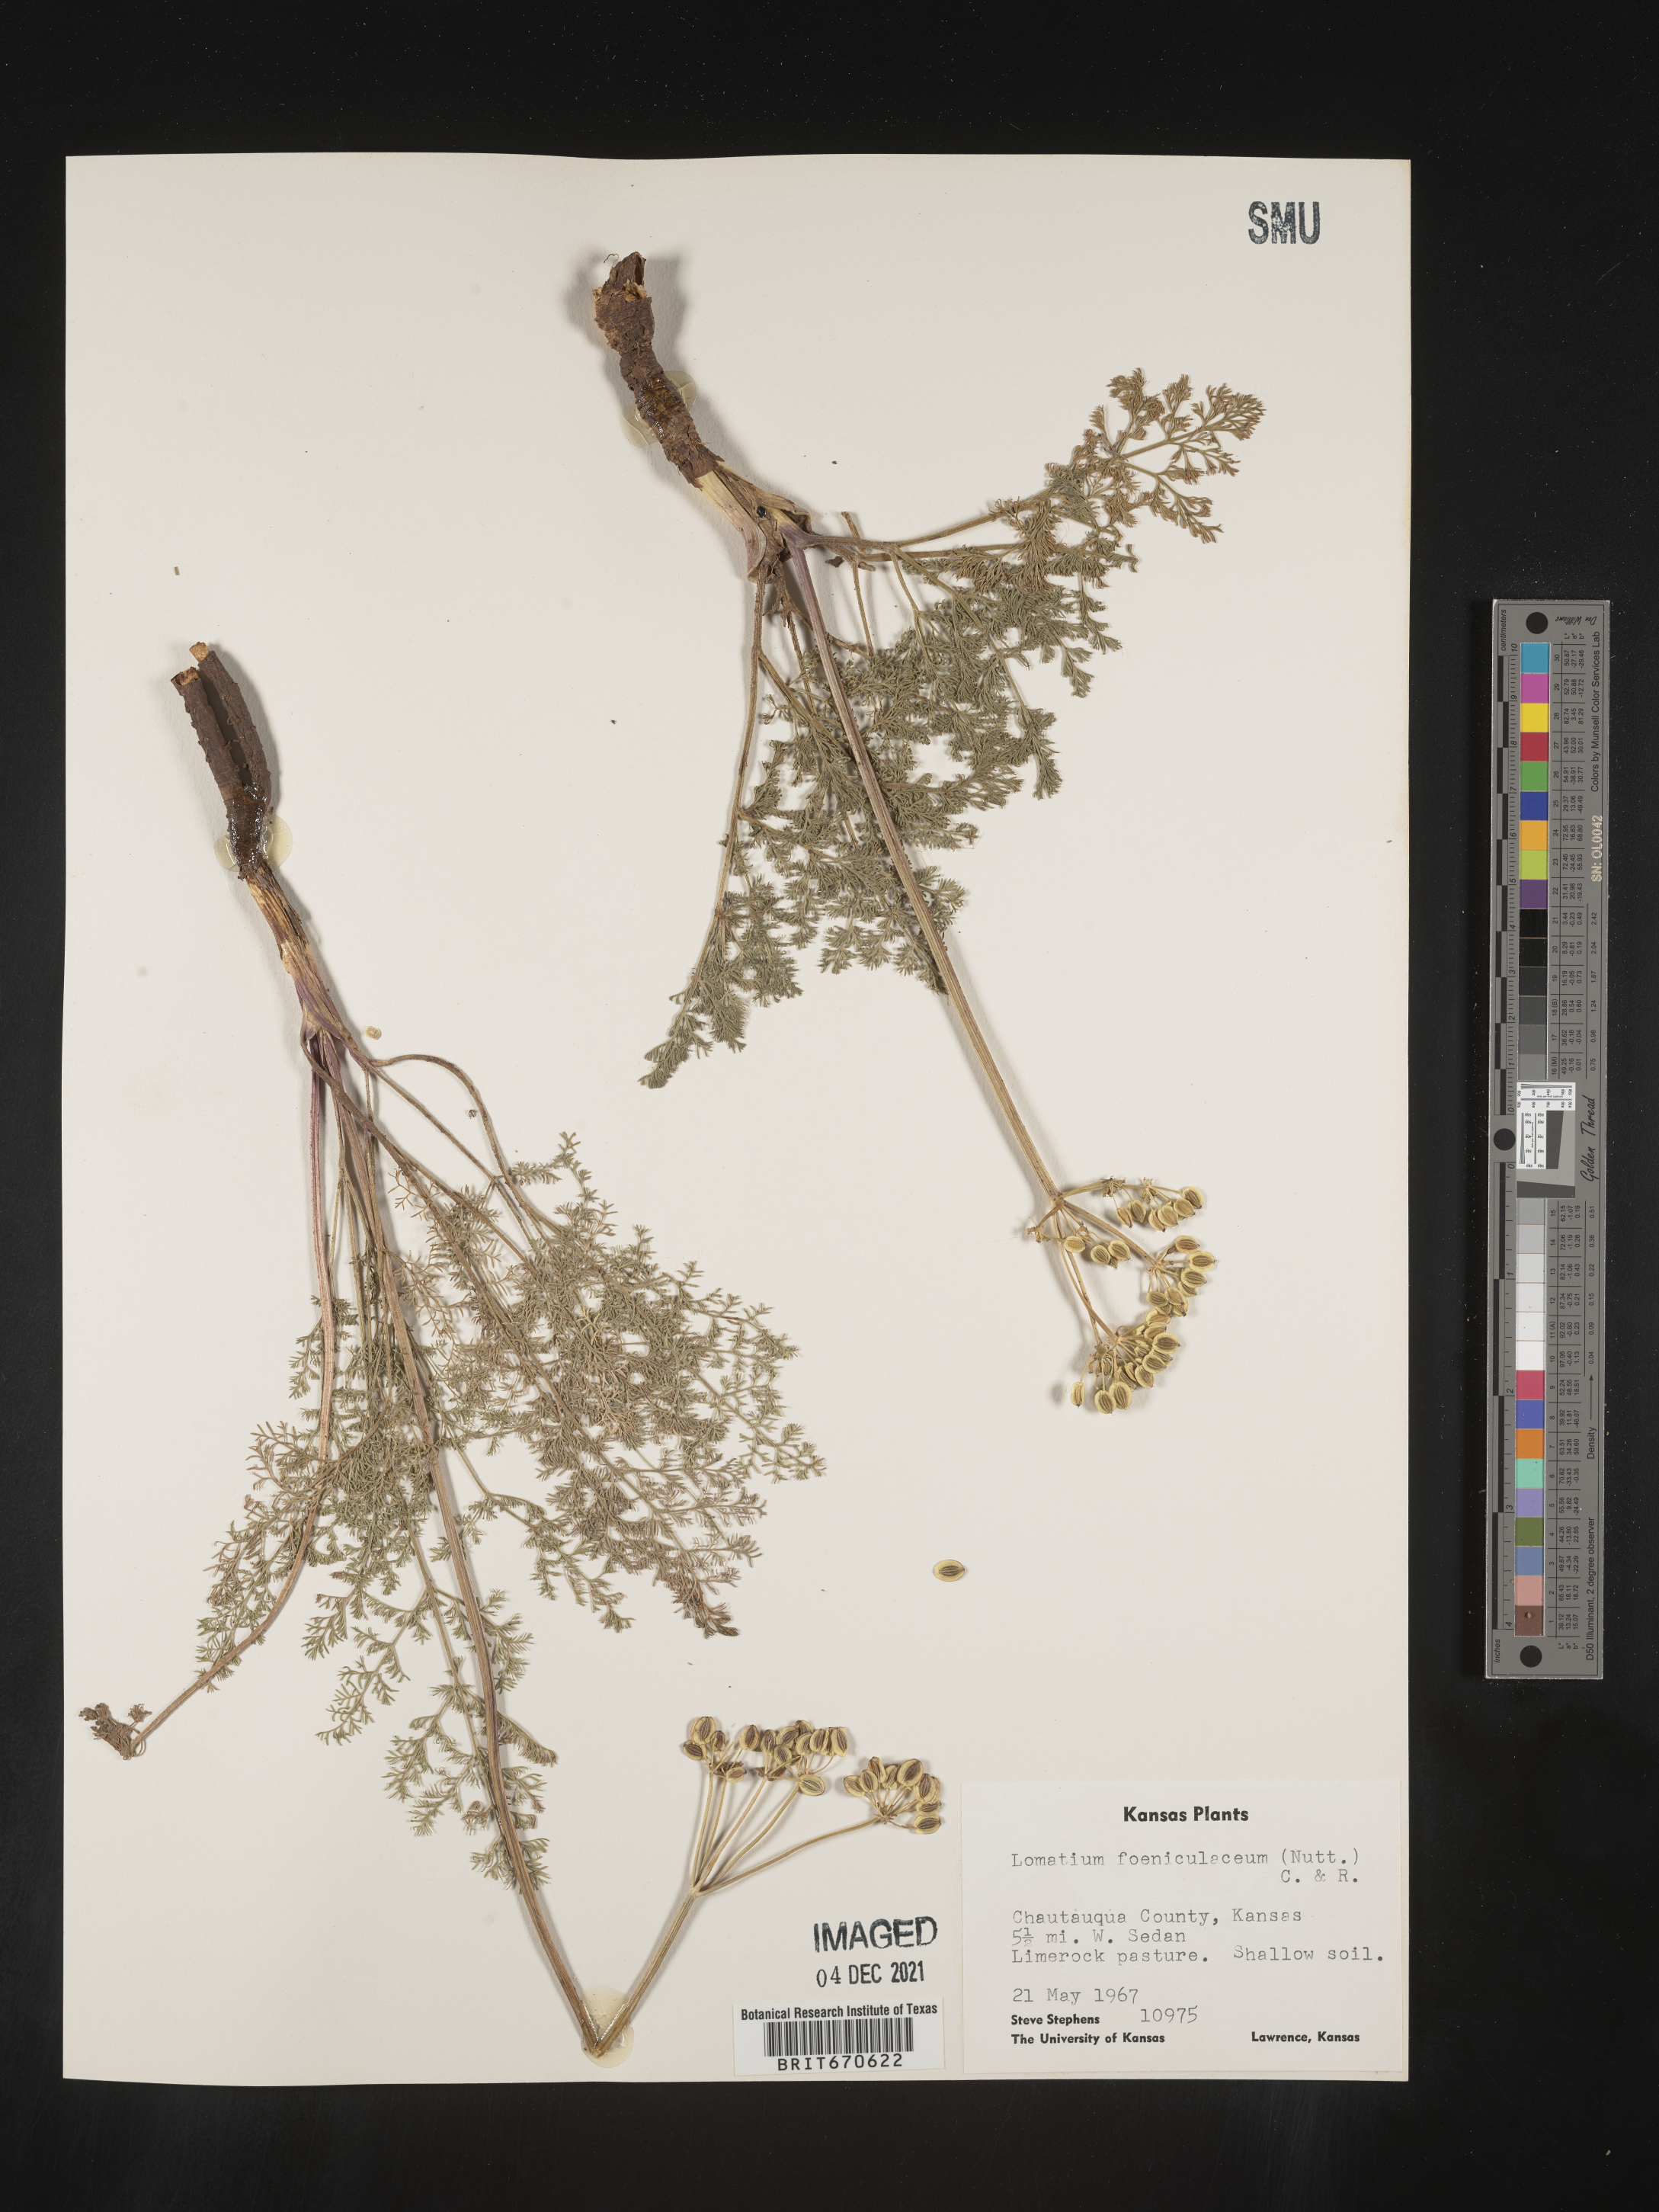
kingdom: Plantae
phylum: Tracheophyta
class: Magnoliopsida
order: Apiales
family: Apiaceae
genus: Lomatium
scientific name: Lomatium foeniculaceum
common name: Desert-parsley
